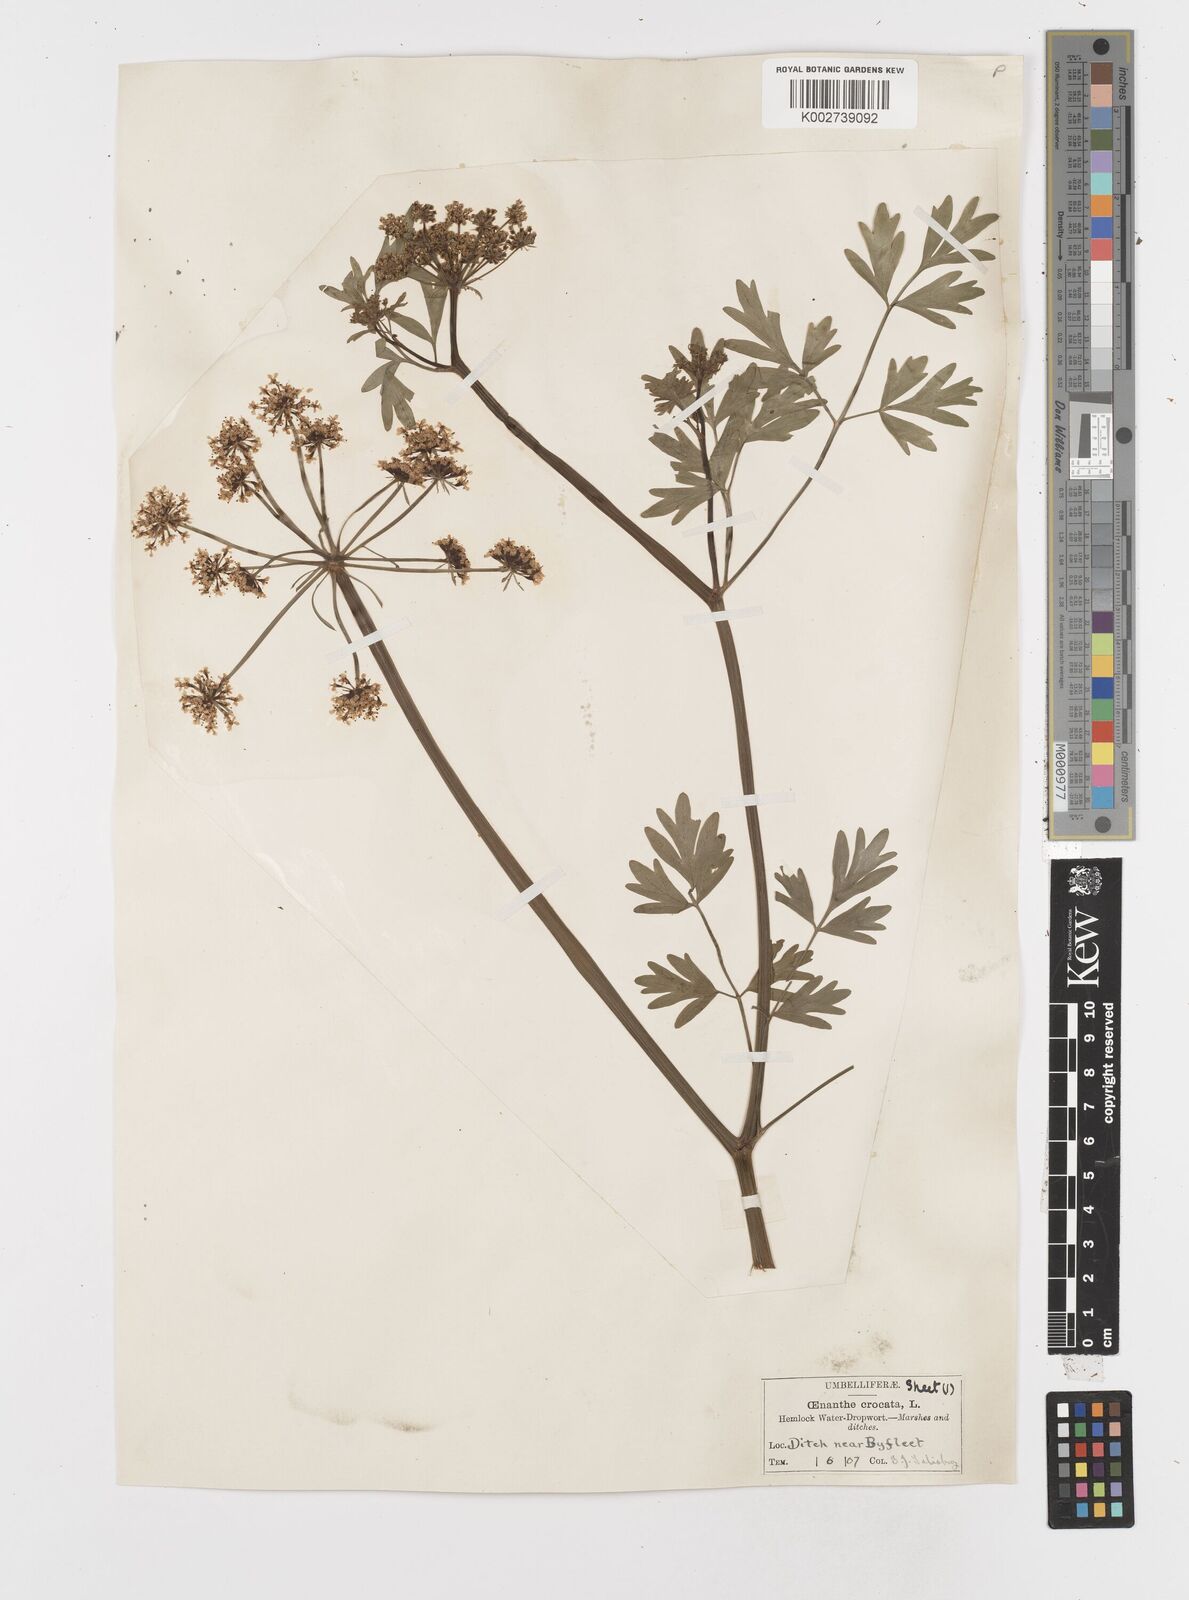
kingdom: Plantae
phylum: Tracheophyta
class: Magnoliopsida
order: Apiales
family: Apiaceae
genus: Oenanthe
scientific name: Oenanthe crocata
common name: Hemlock water-dropwort
